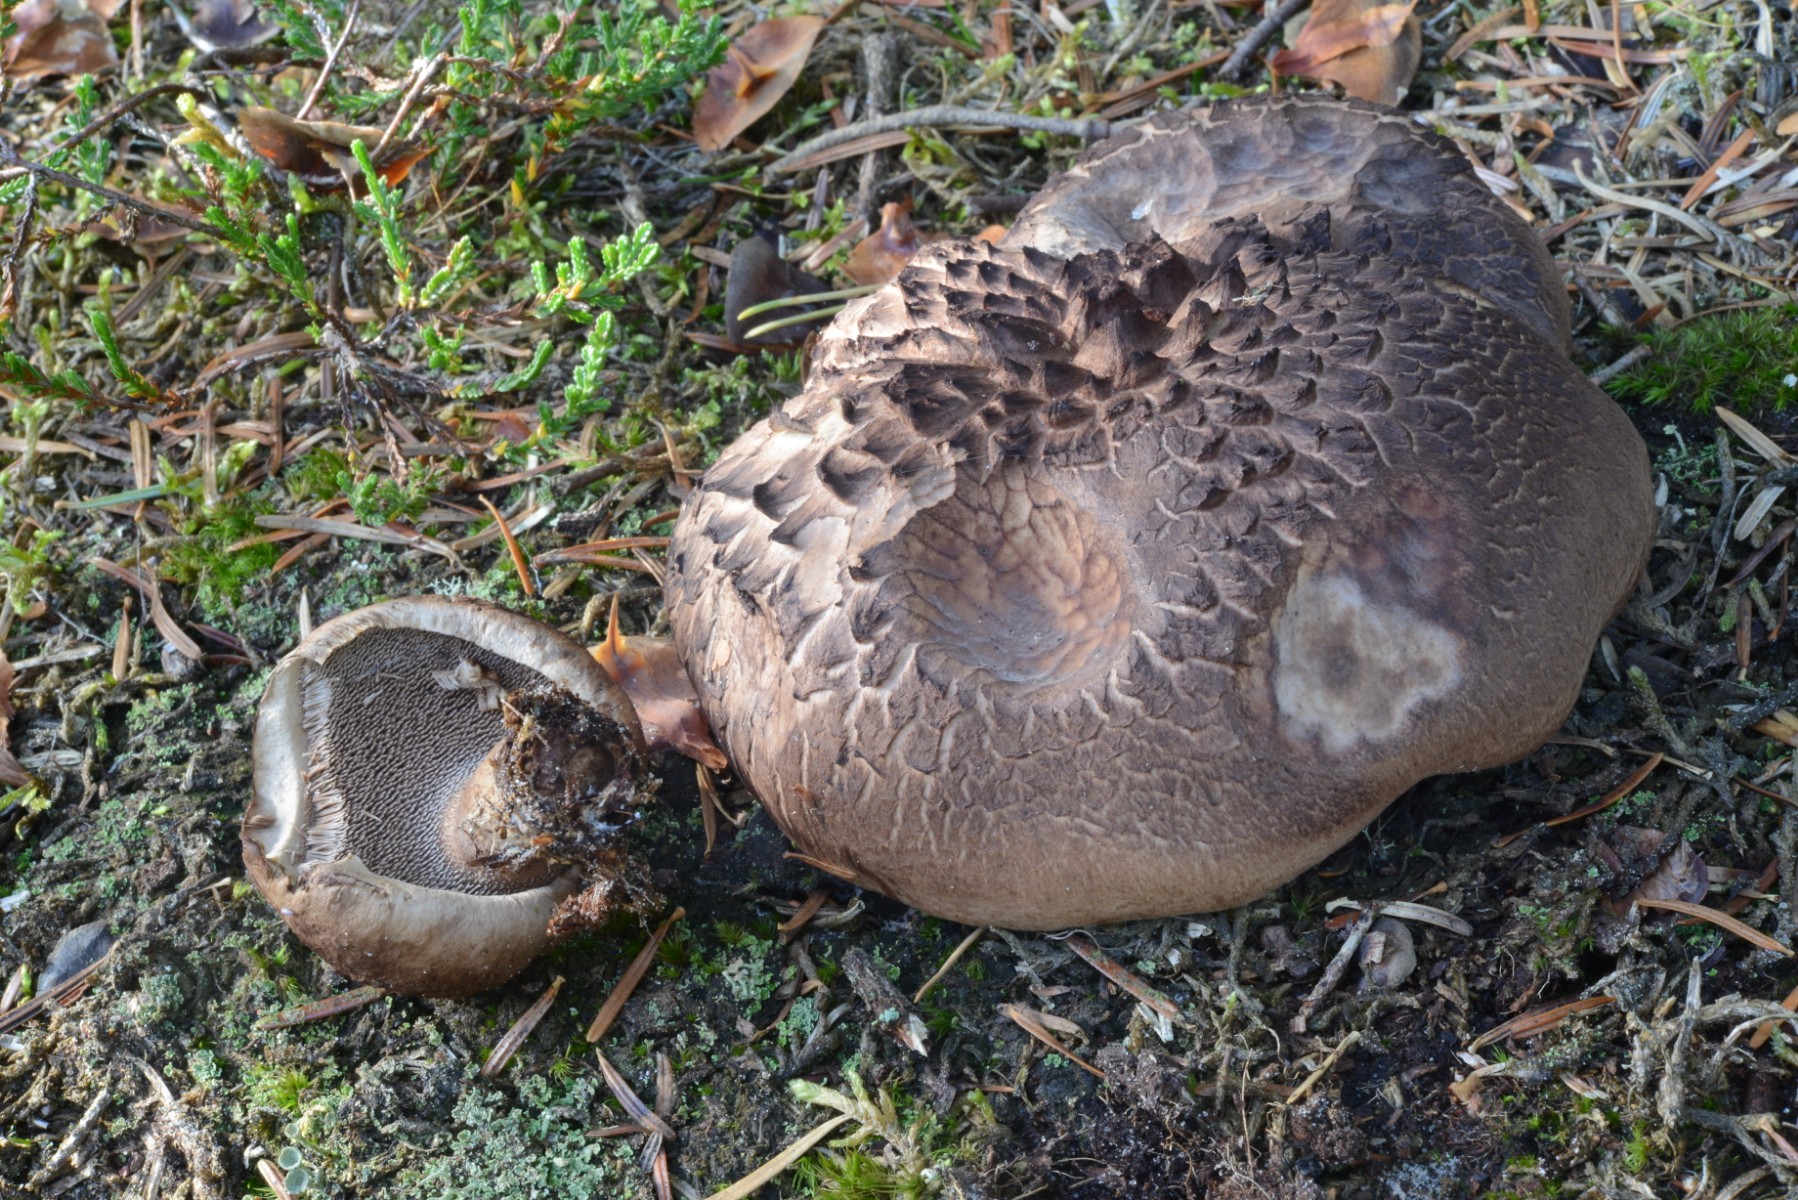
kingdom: Fungi
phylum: Basidiomycota
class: Agaricomycetes
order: Thelephorales
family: Bankeraceae
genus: Sarcodon
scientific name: Sarcodon squamosus
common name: småskællet kødpigsvamp
